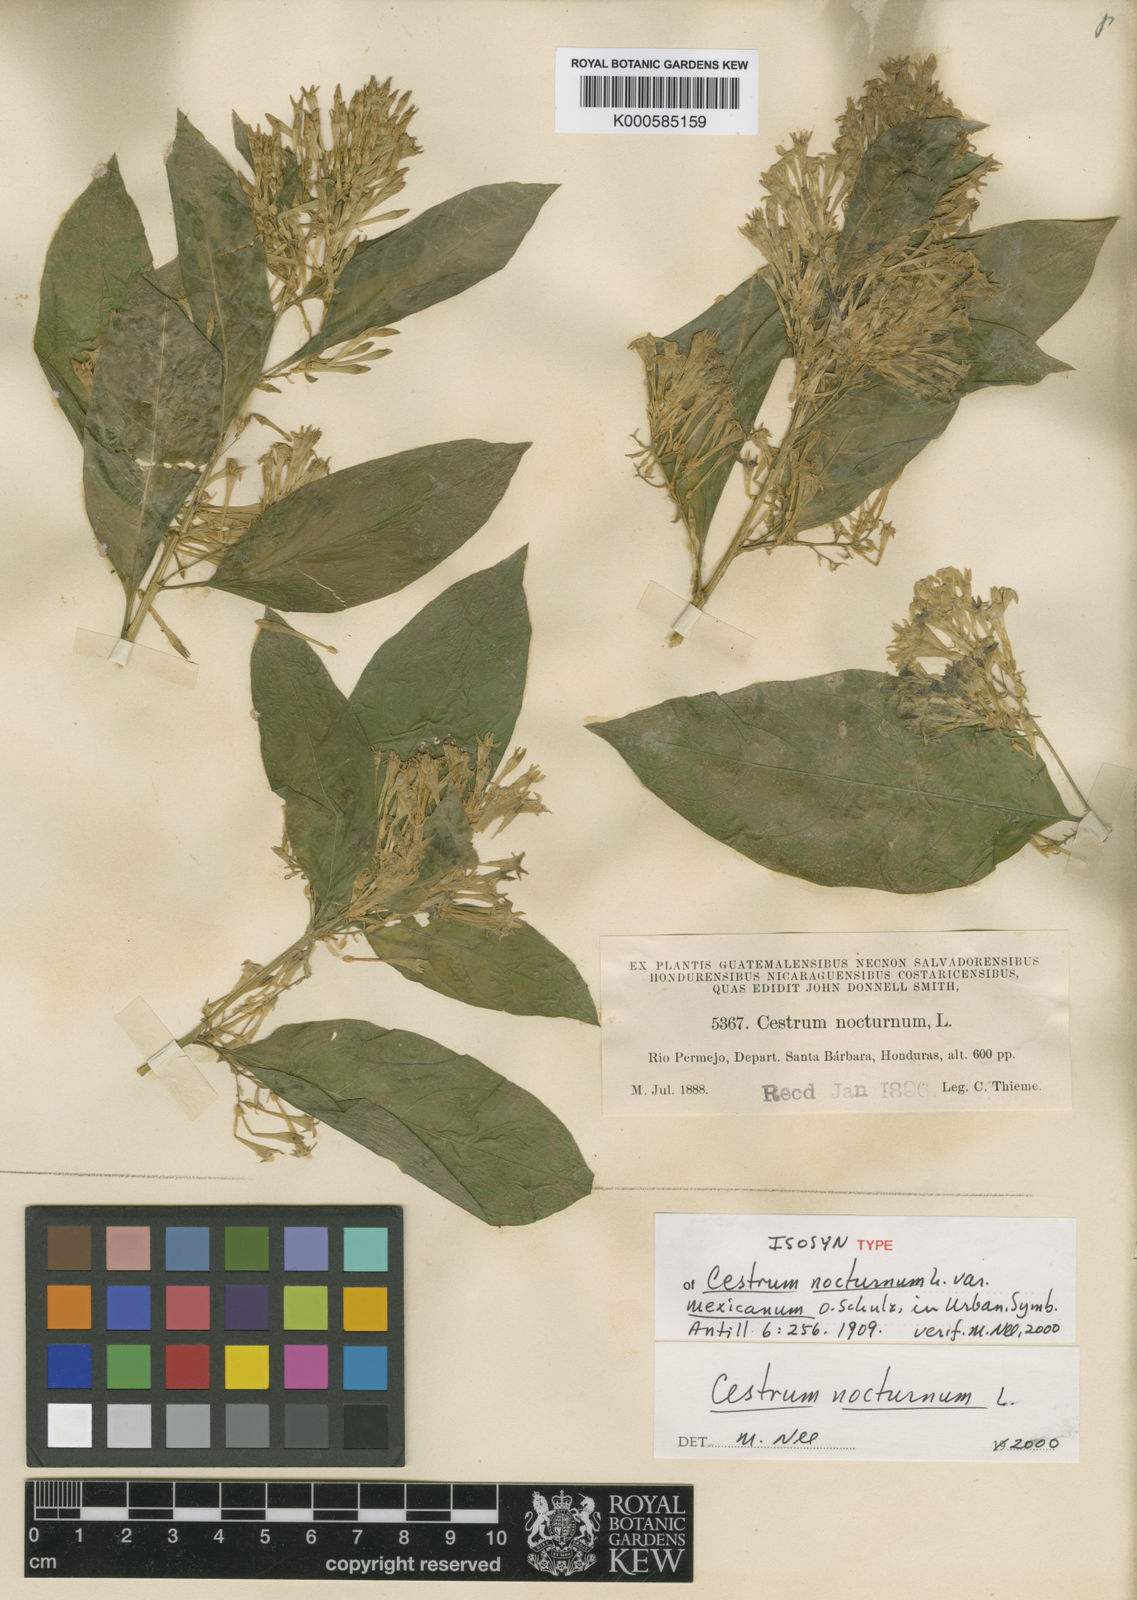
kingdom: Plantae
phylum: Tracheophyta
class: Magnoliopsida
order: Solanales
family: Solanaceae
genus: Cestrum
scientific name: Cestrum nocturnum
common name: Night jessamine
